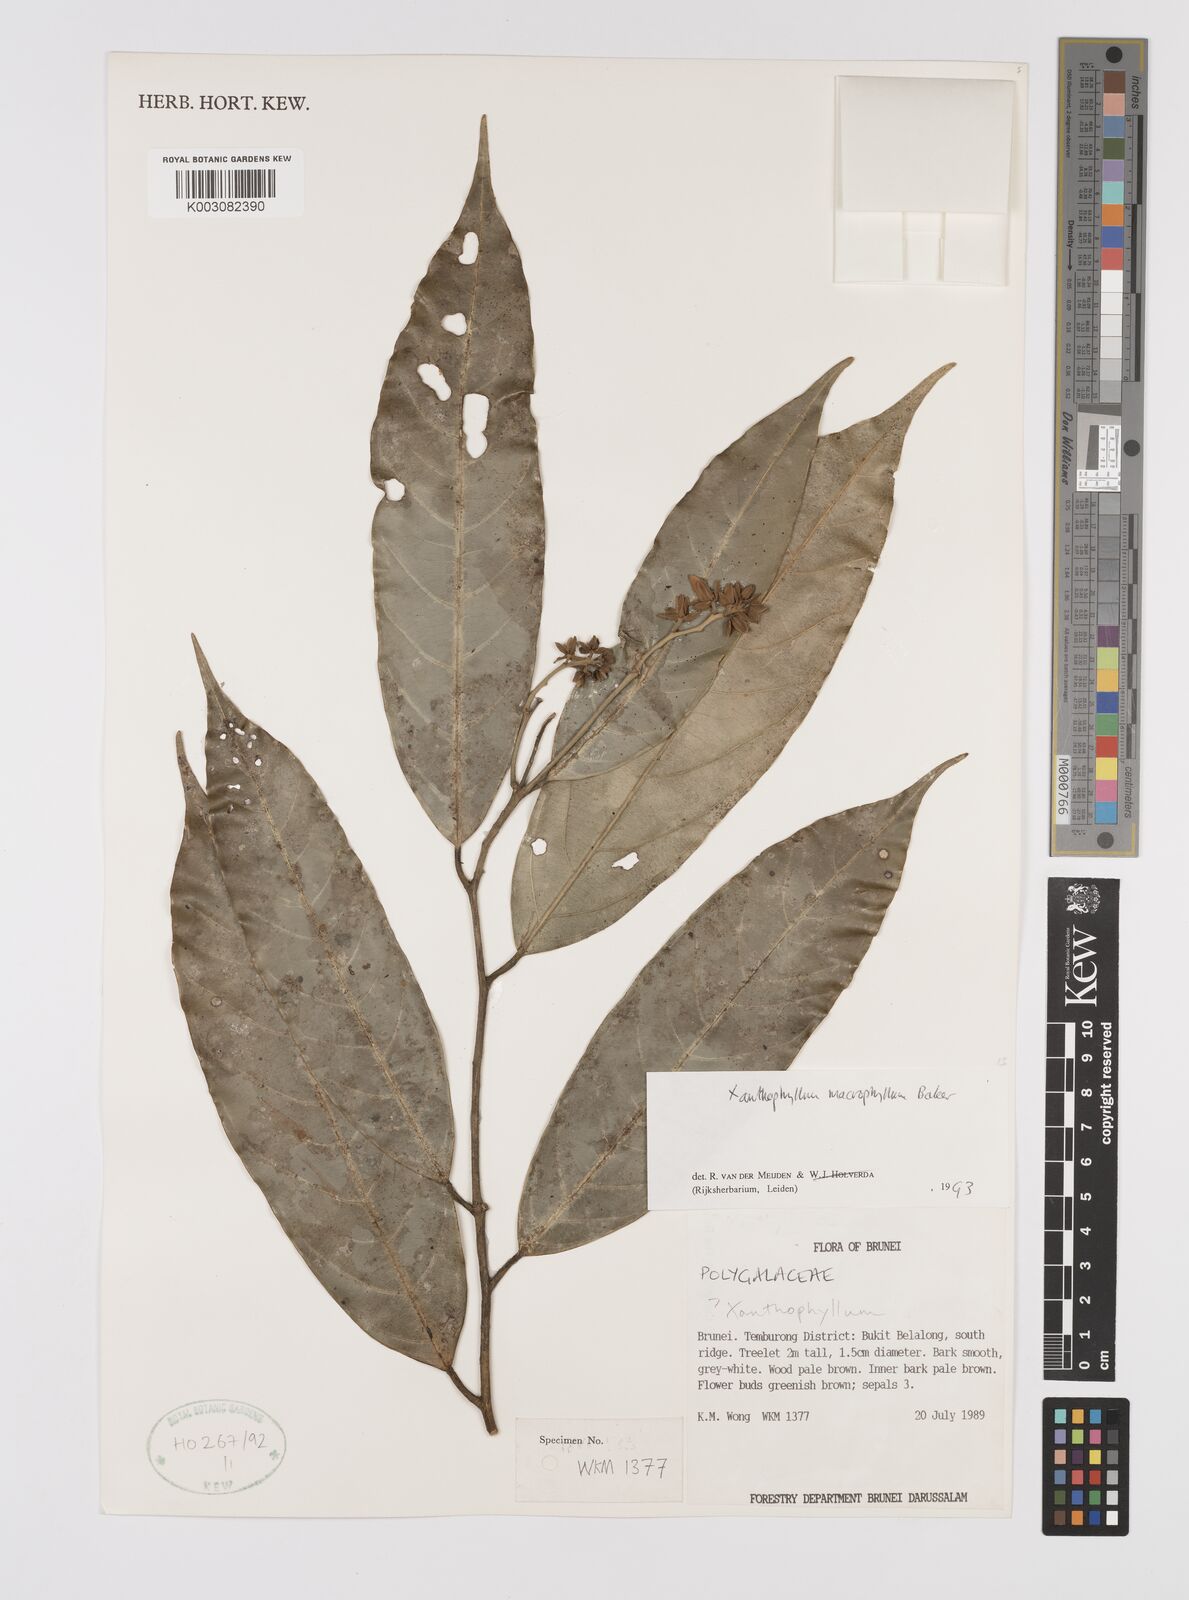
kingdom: Plantae
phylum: Tracheophyta
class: Magnoliopsida
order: Fabales
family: Polygalaceae
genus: Xanthophyllum
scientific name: Xanthophyllum macrophyllum
